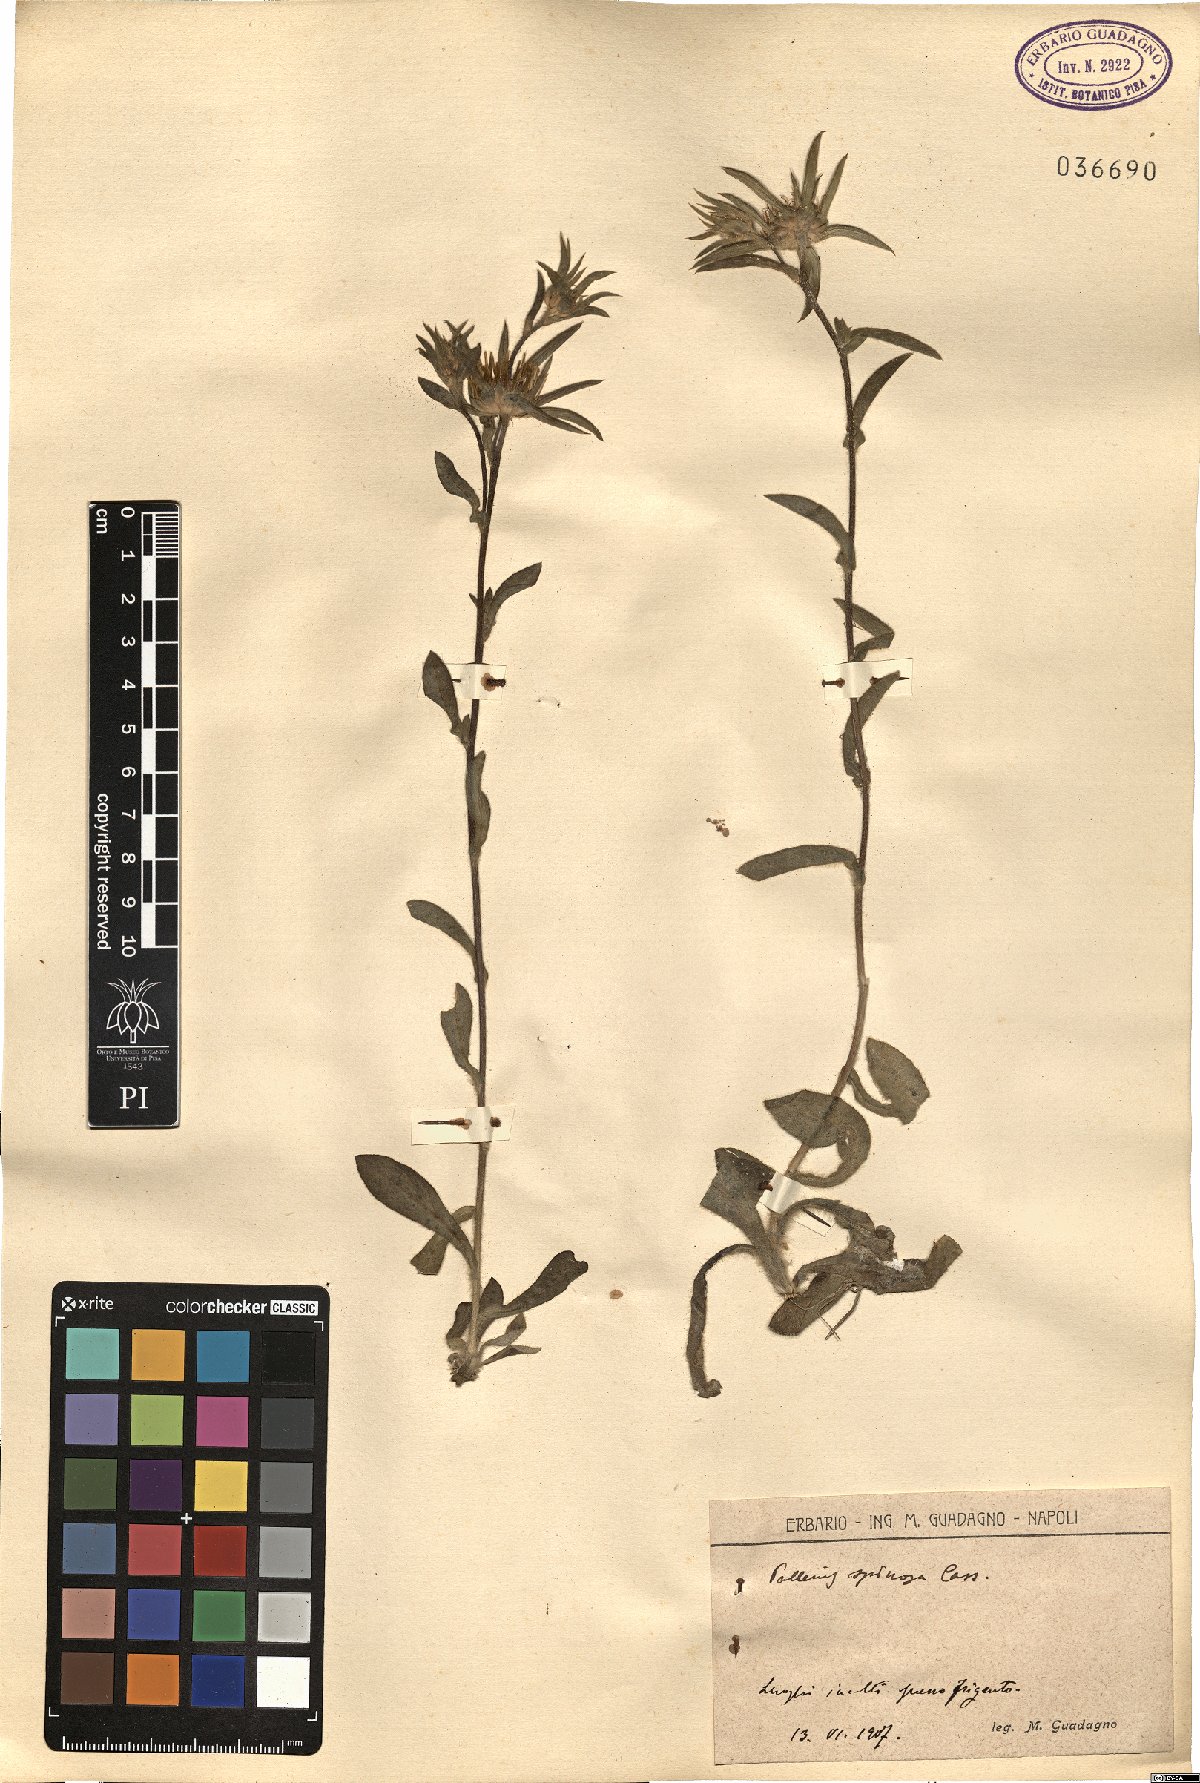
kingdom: Plantae
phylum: Tracheophyta
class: Magnoliopsida
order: Asterales
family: Asteraceae
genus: Pallenis
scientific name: Pallenis spinosa
